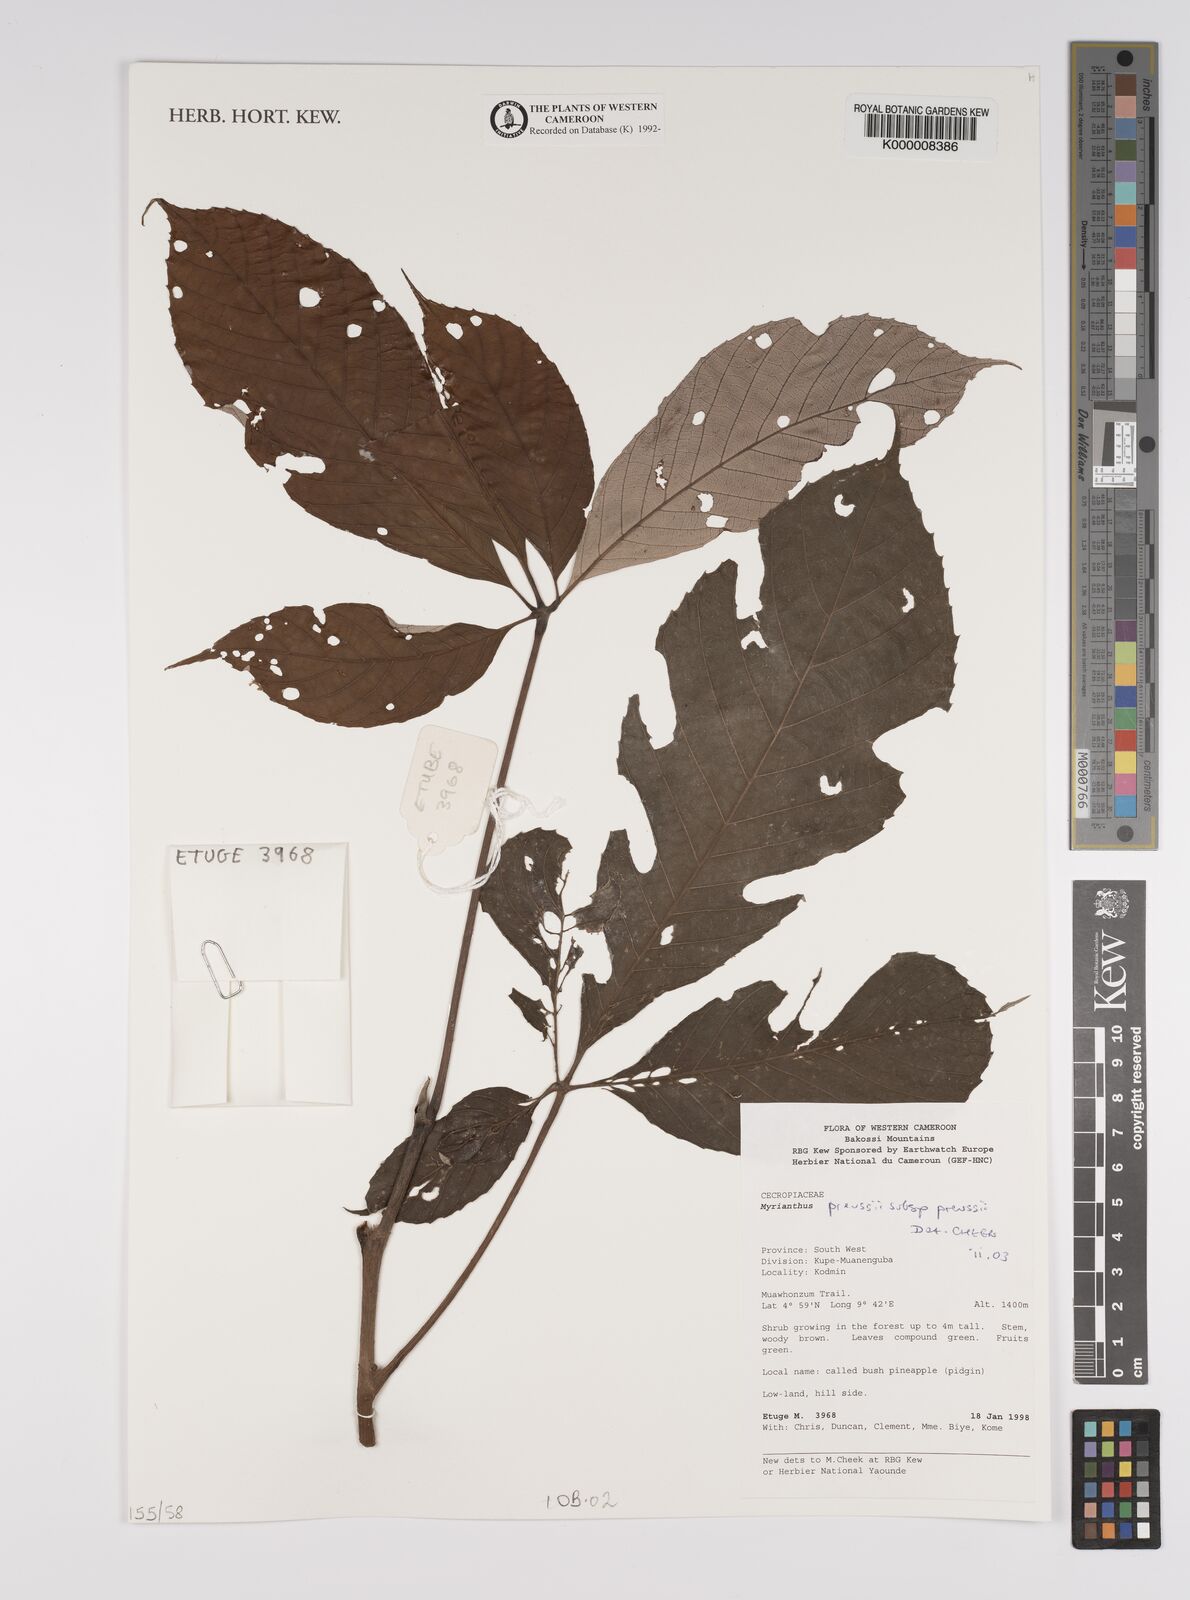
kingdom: Plantae
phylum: Tracheophyta
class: Magnoliopsida
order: Rosales
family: Urticaceae
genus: Myrianthus
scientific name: Myrianthus preussii
